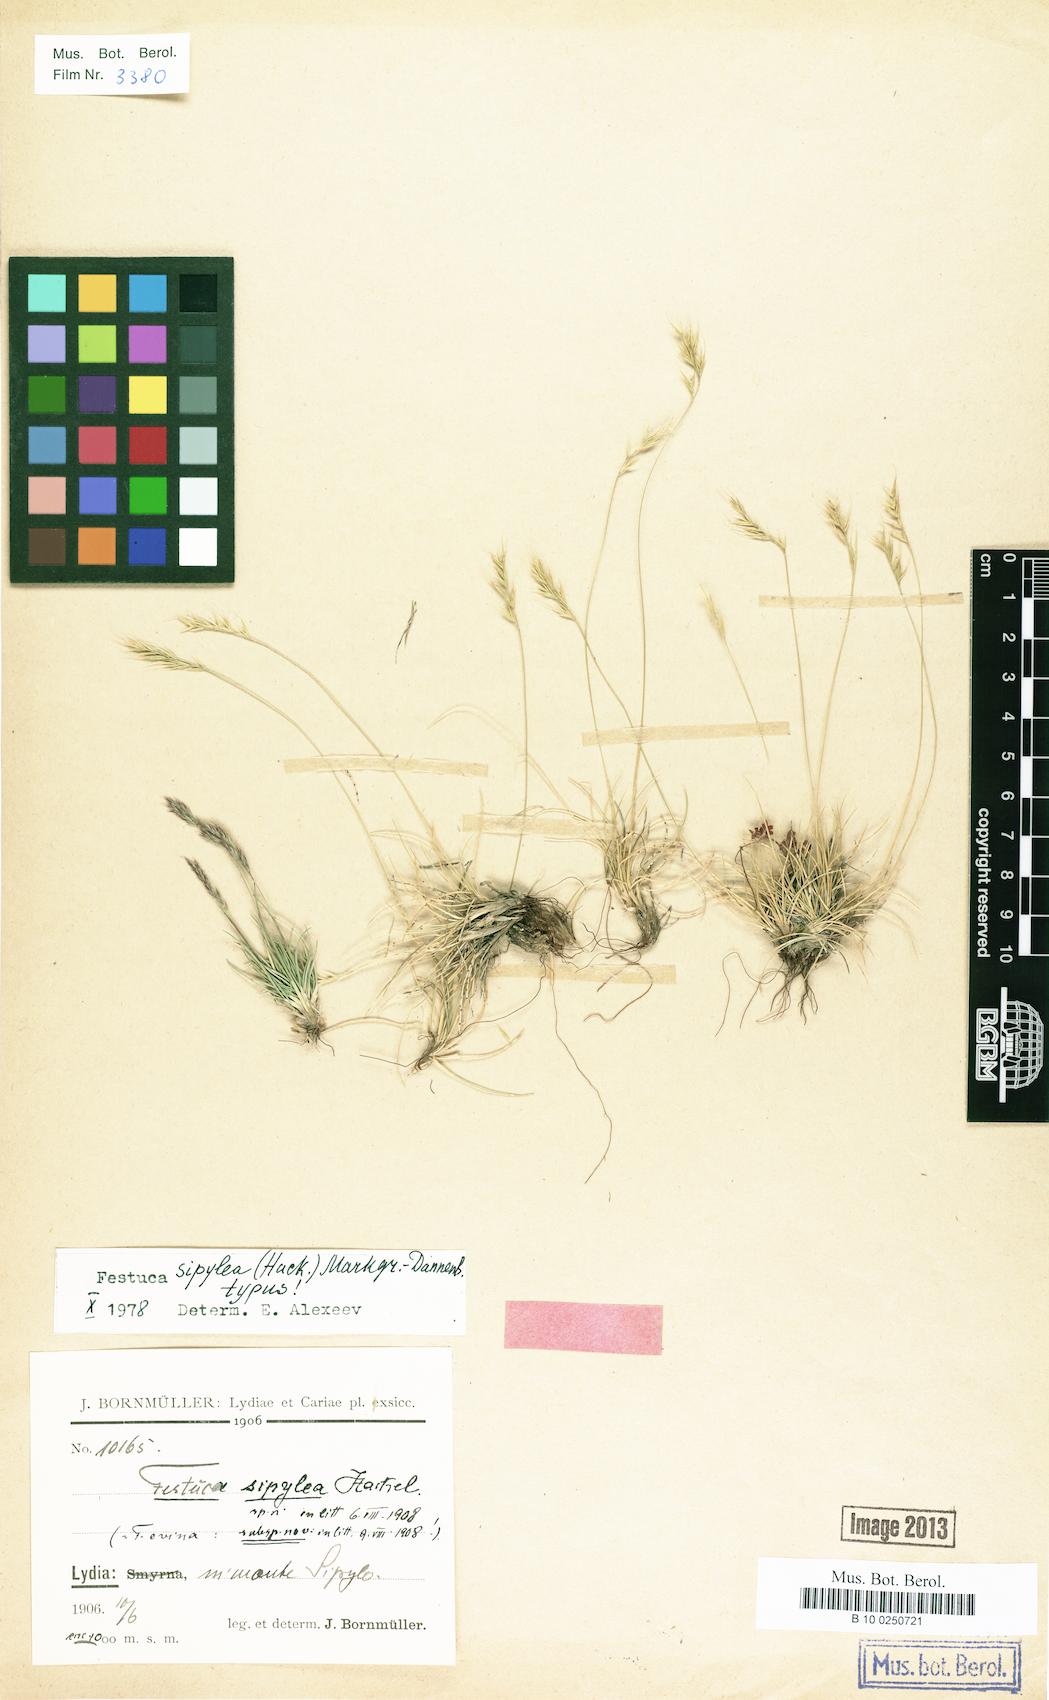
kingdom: Plantae
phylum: Tracheophyta
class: Liliopsida
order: Poales
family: Poaceae
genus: Festuca
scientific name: Festuca sipylea
